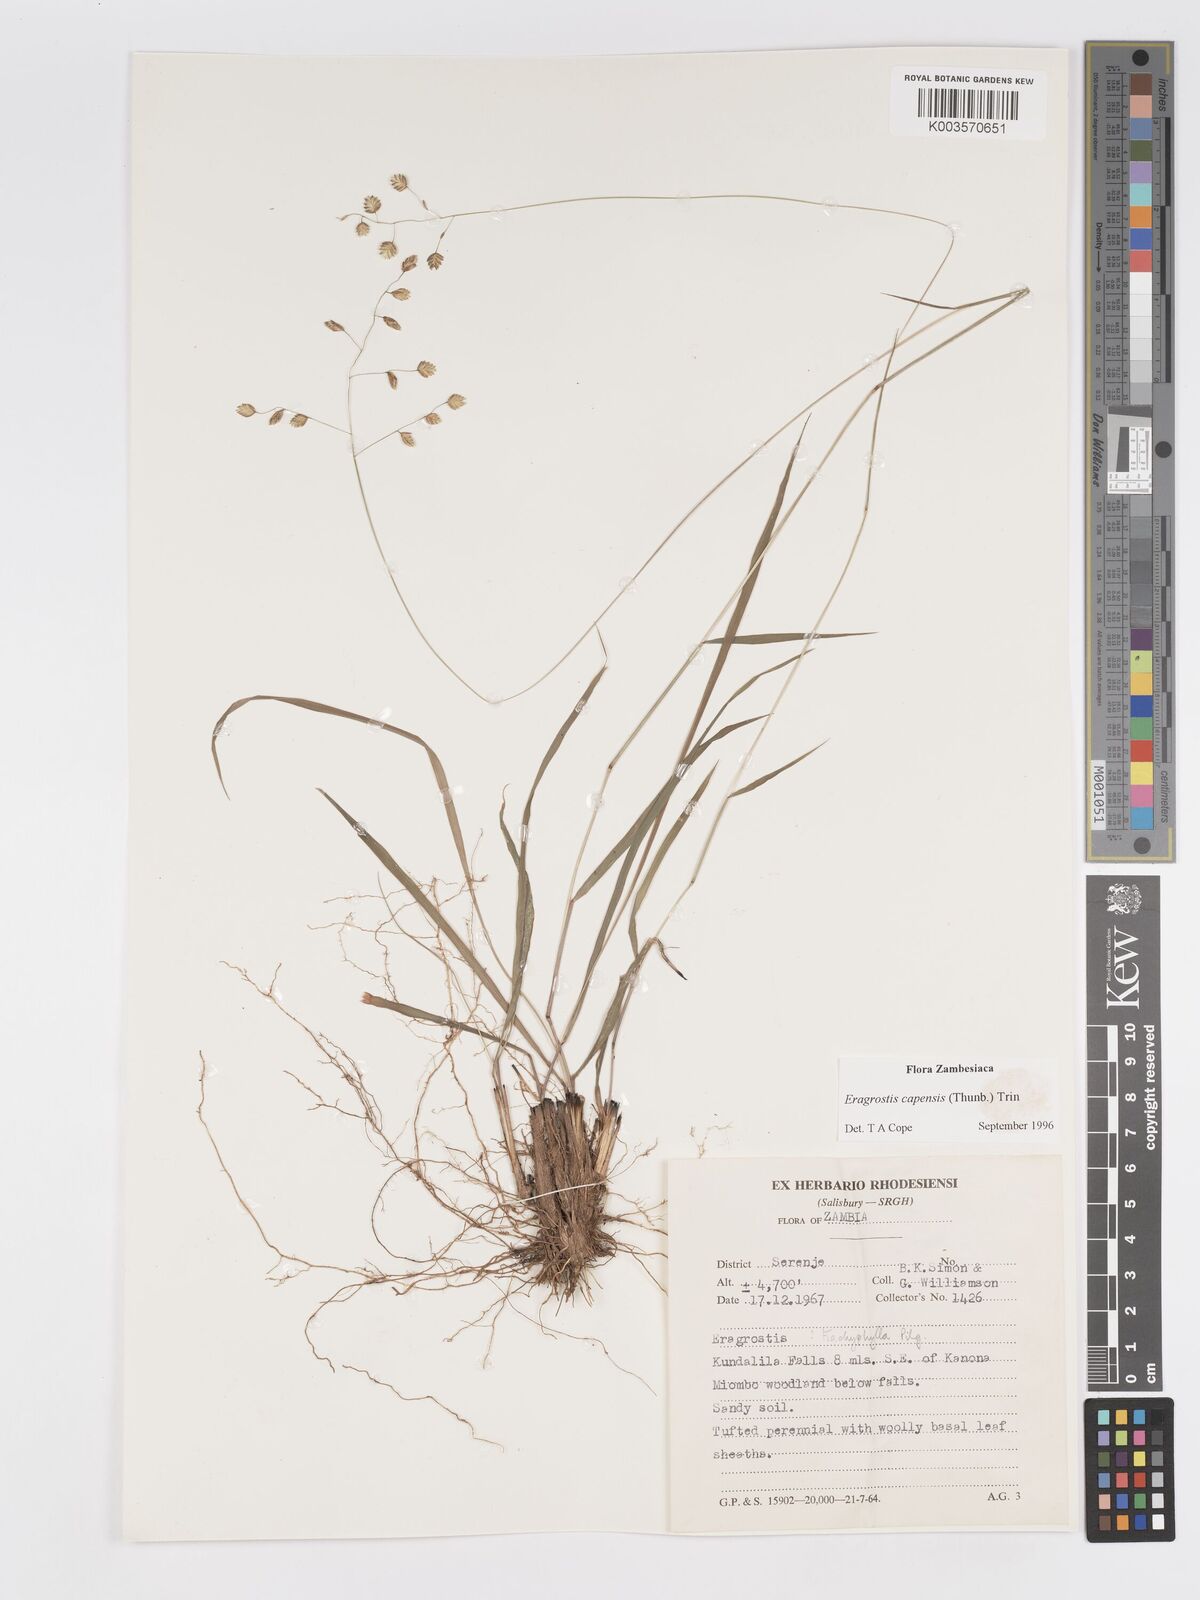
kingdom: Plantae
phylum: Tracheophyta
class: Liliopsida
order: Poales
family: Poaceae
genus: Eragrostis
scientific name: Eragrostis capensis
